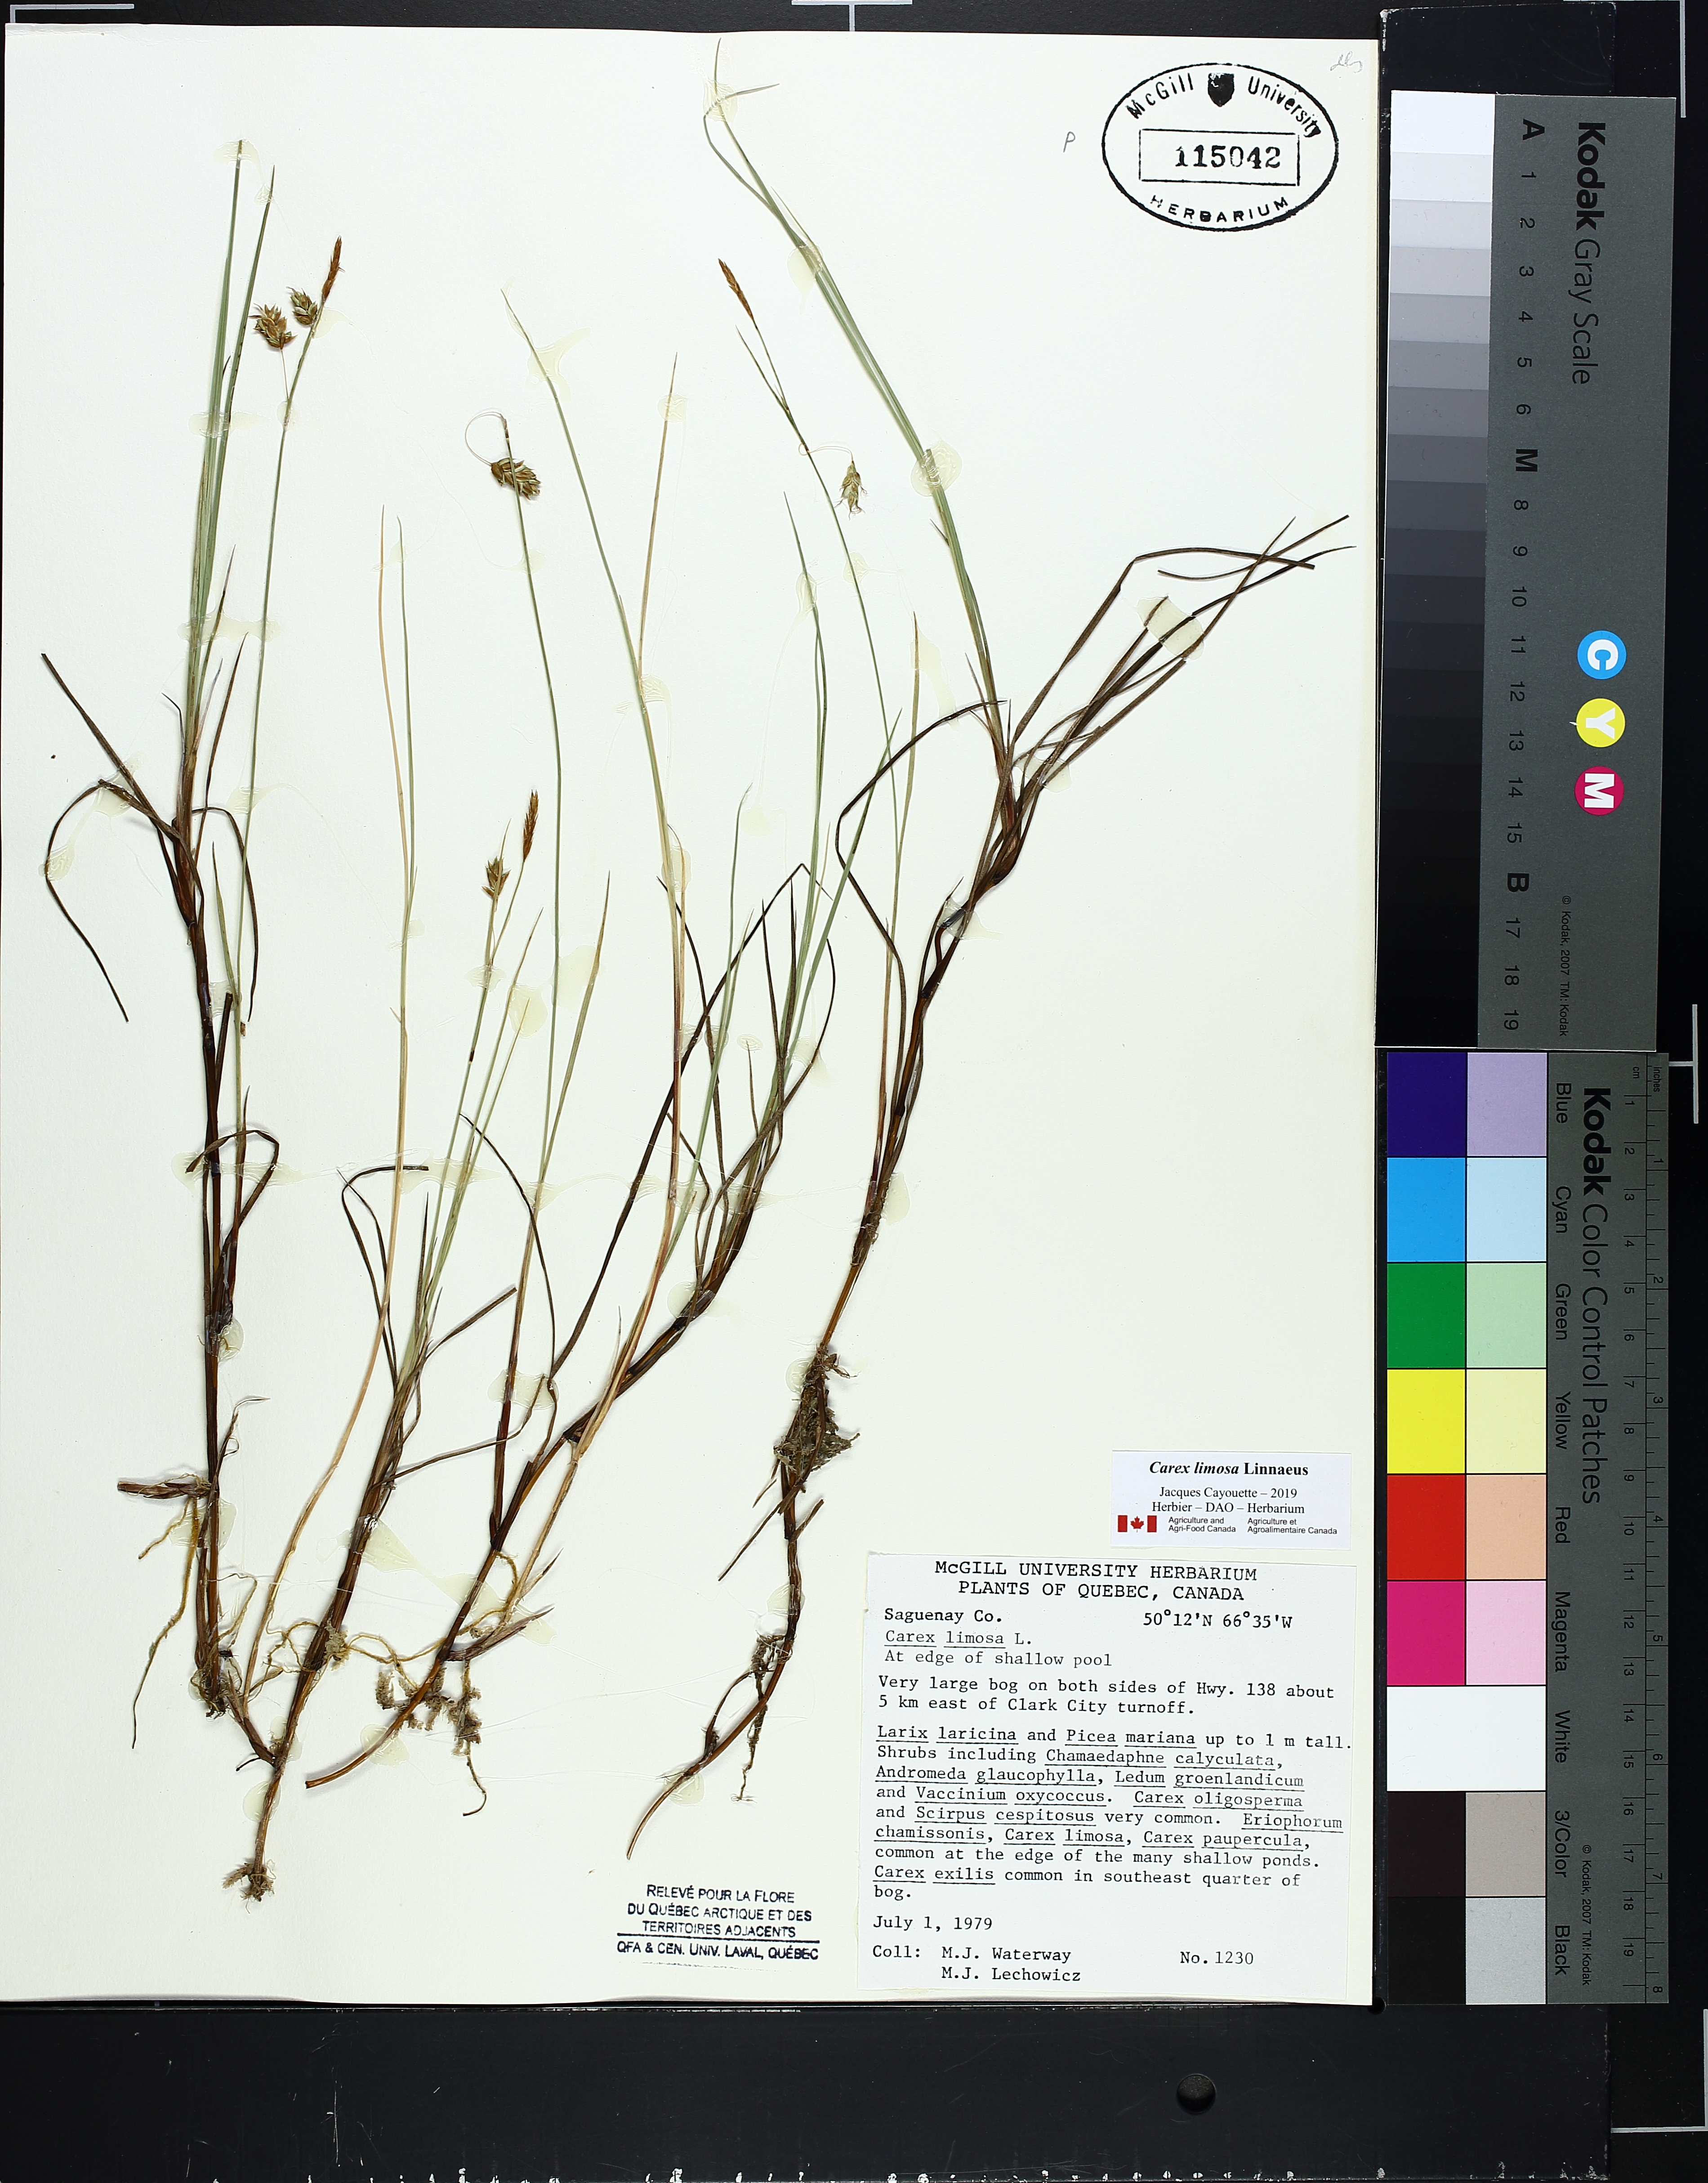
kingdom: Plantae
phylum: Tracheophyta
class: Liliopsida
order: Poales
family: Cyperaceae
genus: Carex
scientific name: Carex limosa
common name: Bog sedge
